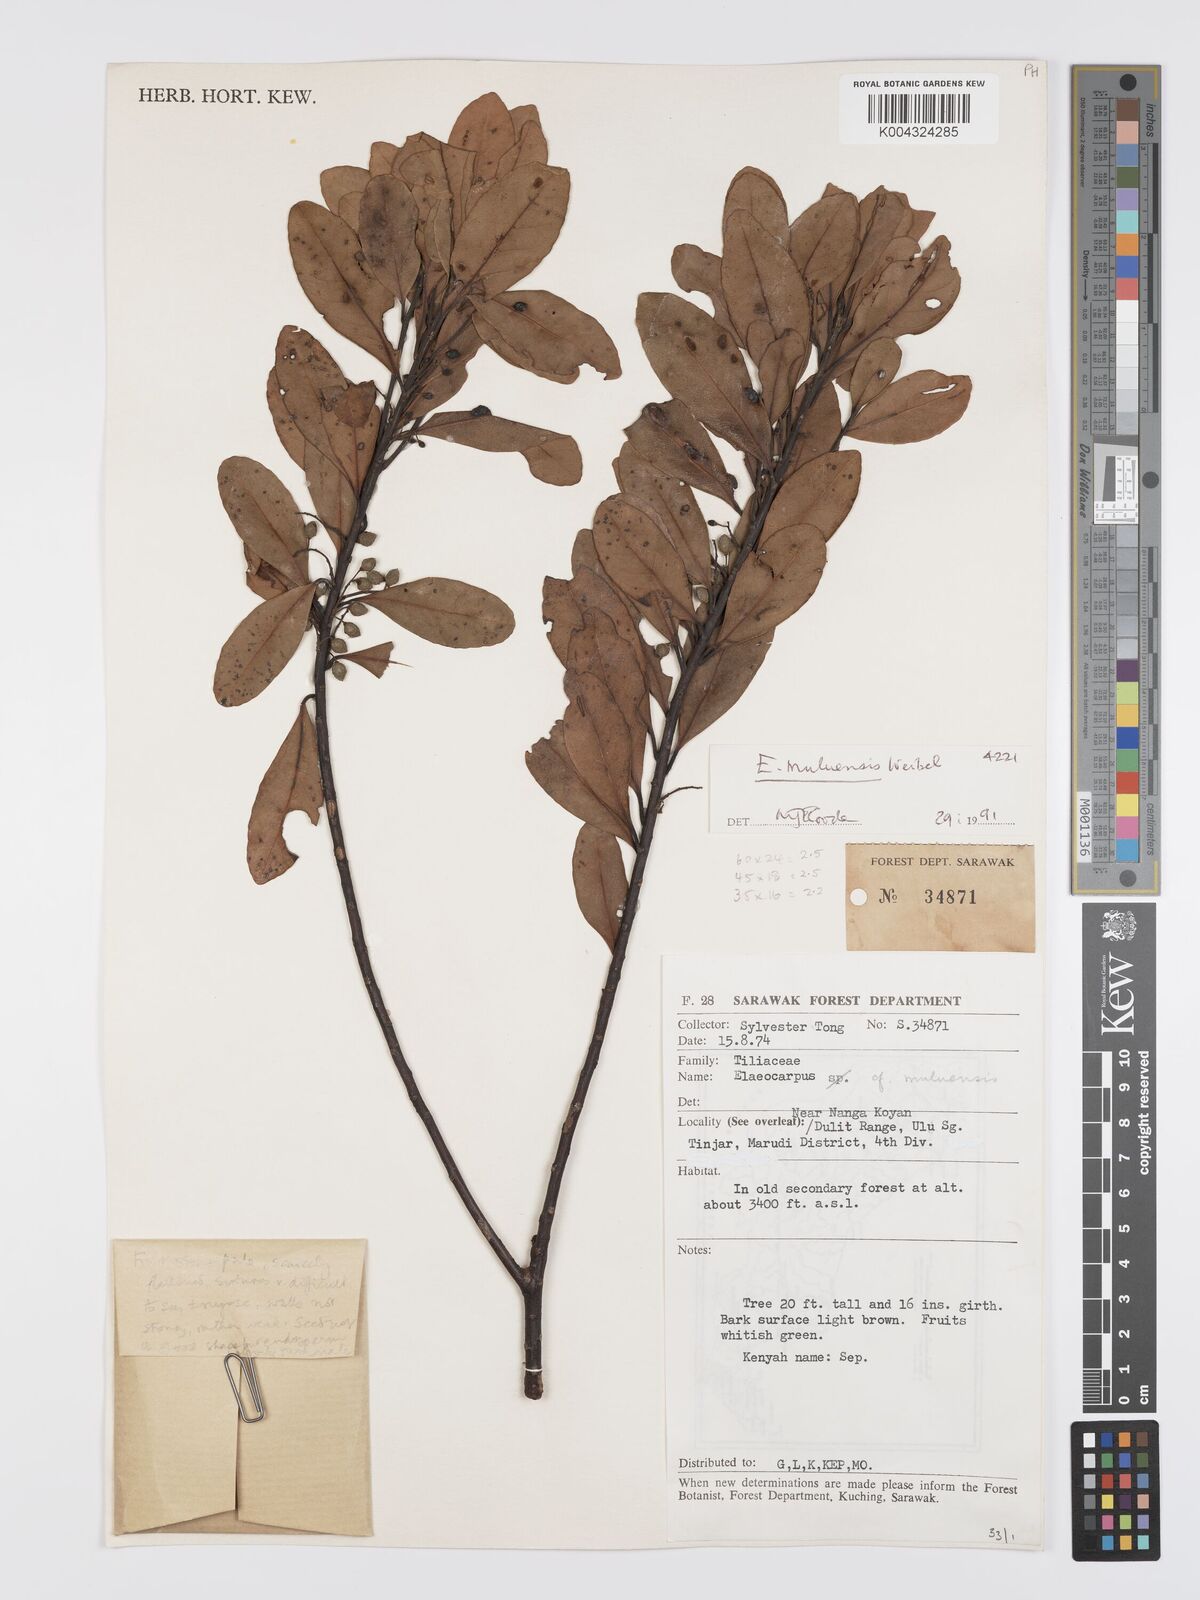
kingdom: Plantae
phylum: Tracheophyta
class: Magnoliopsida
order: Oxalidales
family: Elaeocarpaceae
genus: Elaeocarpus
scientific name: Elaeocarpus muluensis
